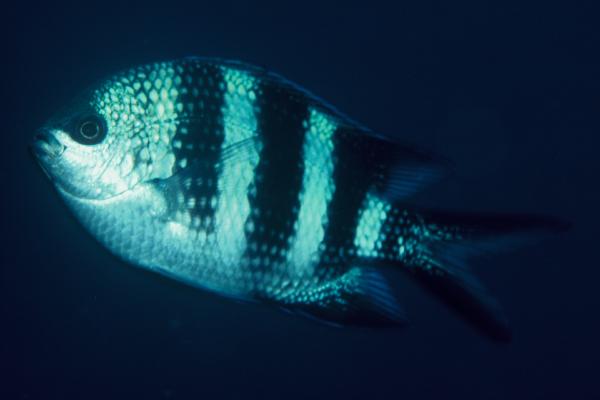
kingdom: Animalia
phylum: Chordata
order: Perciformes
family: Pomacentridae
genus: Abudefduf
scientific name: Abudefduf natalensis
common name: Natal sergeant
